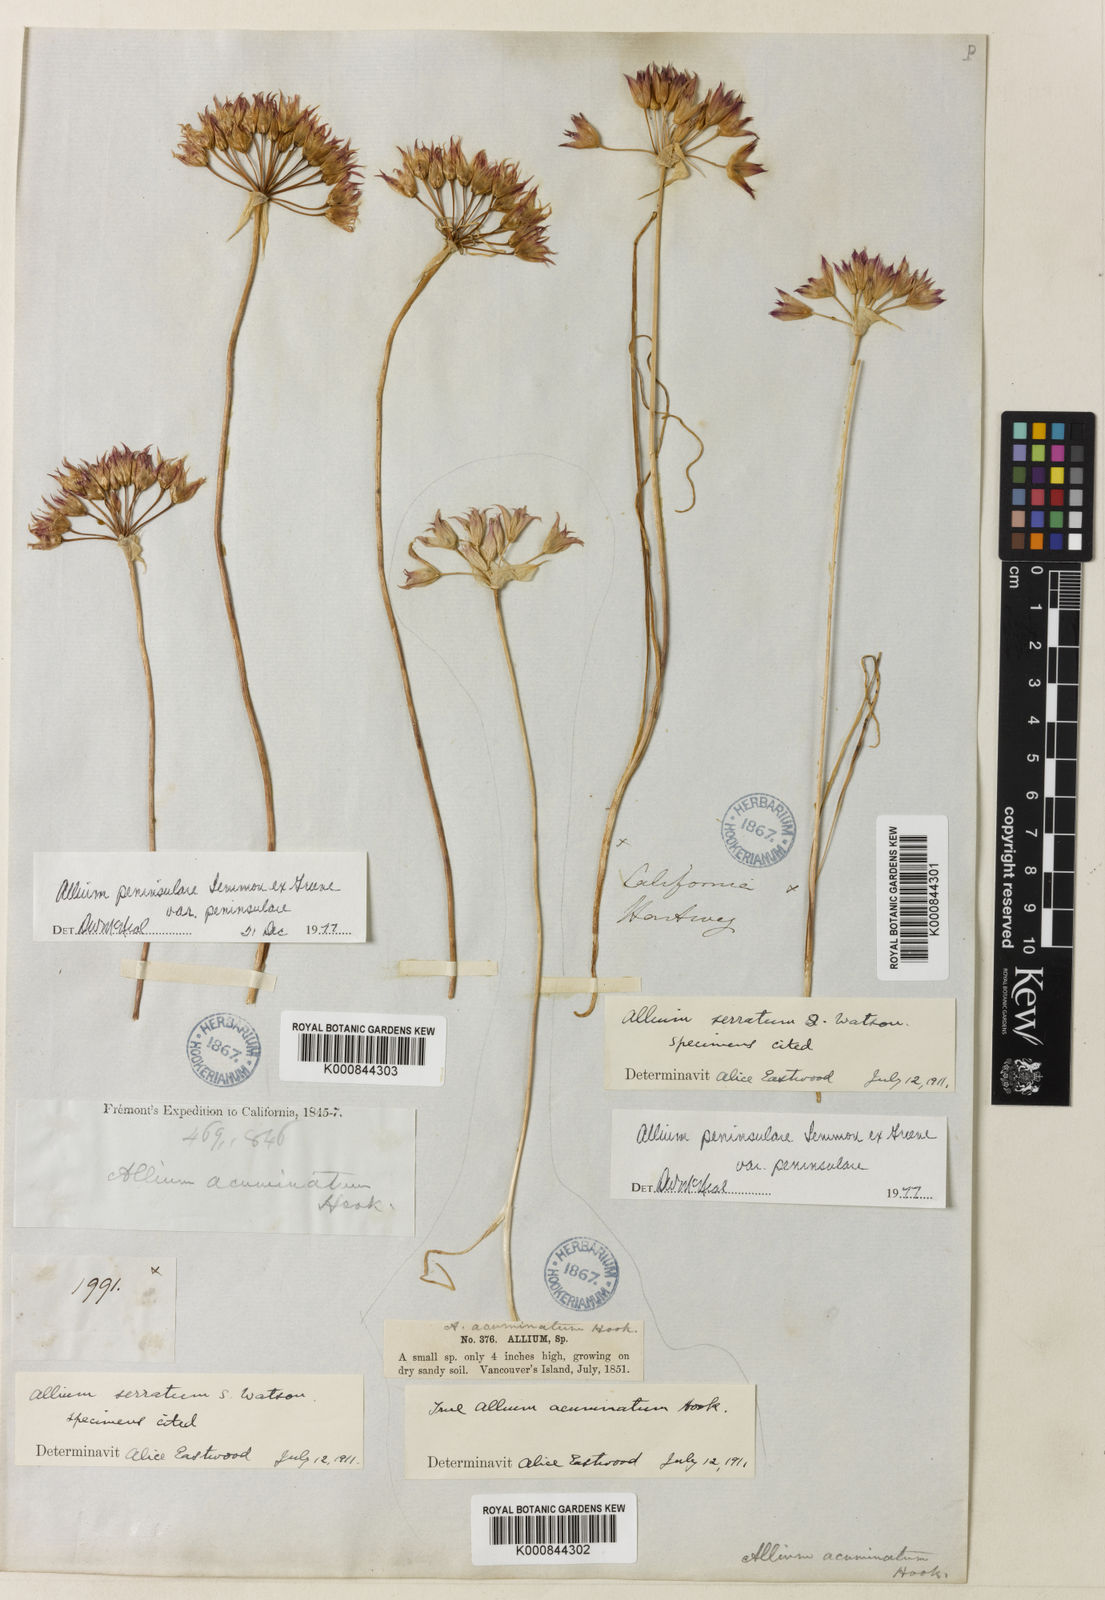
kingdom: Plantae
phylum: Tracheophyta
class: Liliopsida
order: Asparagales
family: Amaryllidaceae
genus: Allium
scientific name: Allium peninsulare
